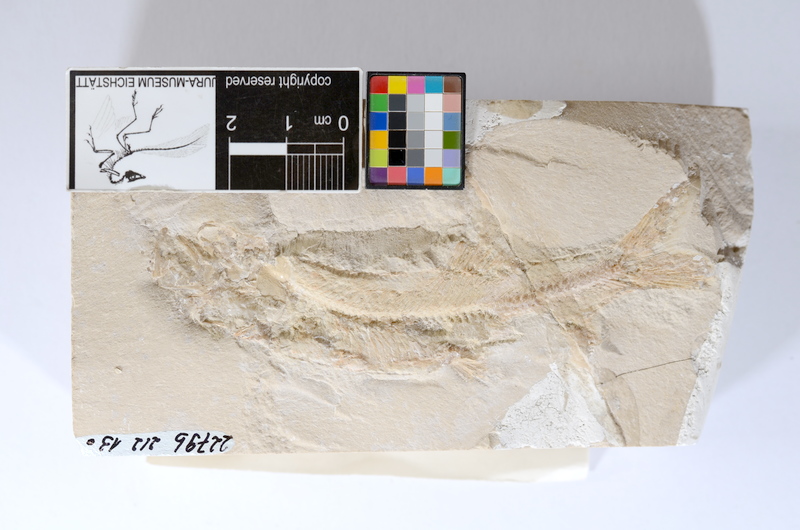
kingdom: Animalia
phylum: Chordata
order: Elopiformes
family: Anaethalionidae
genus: Anaethalion
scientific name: Anaethalion angustissimus
